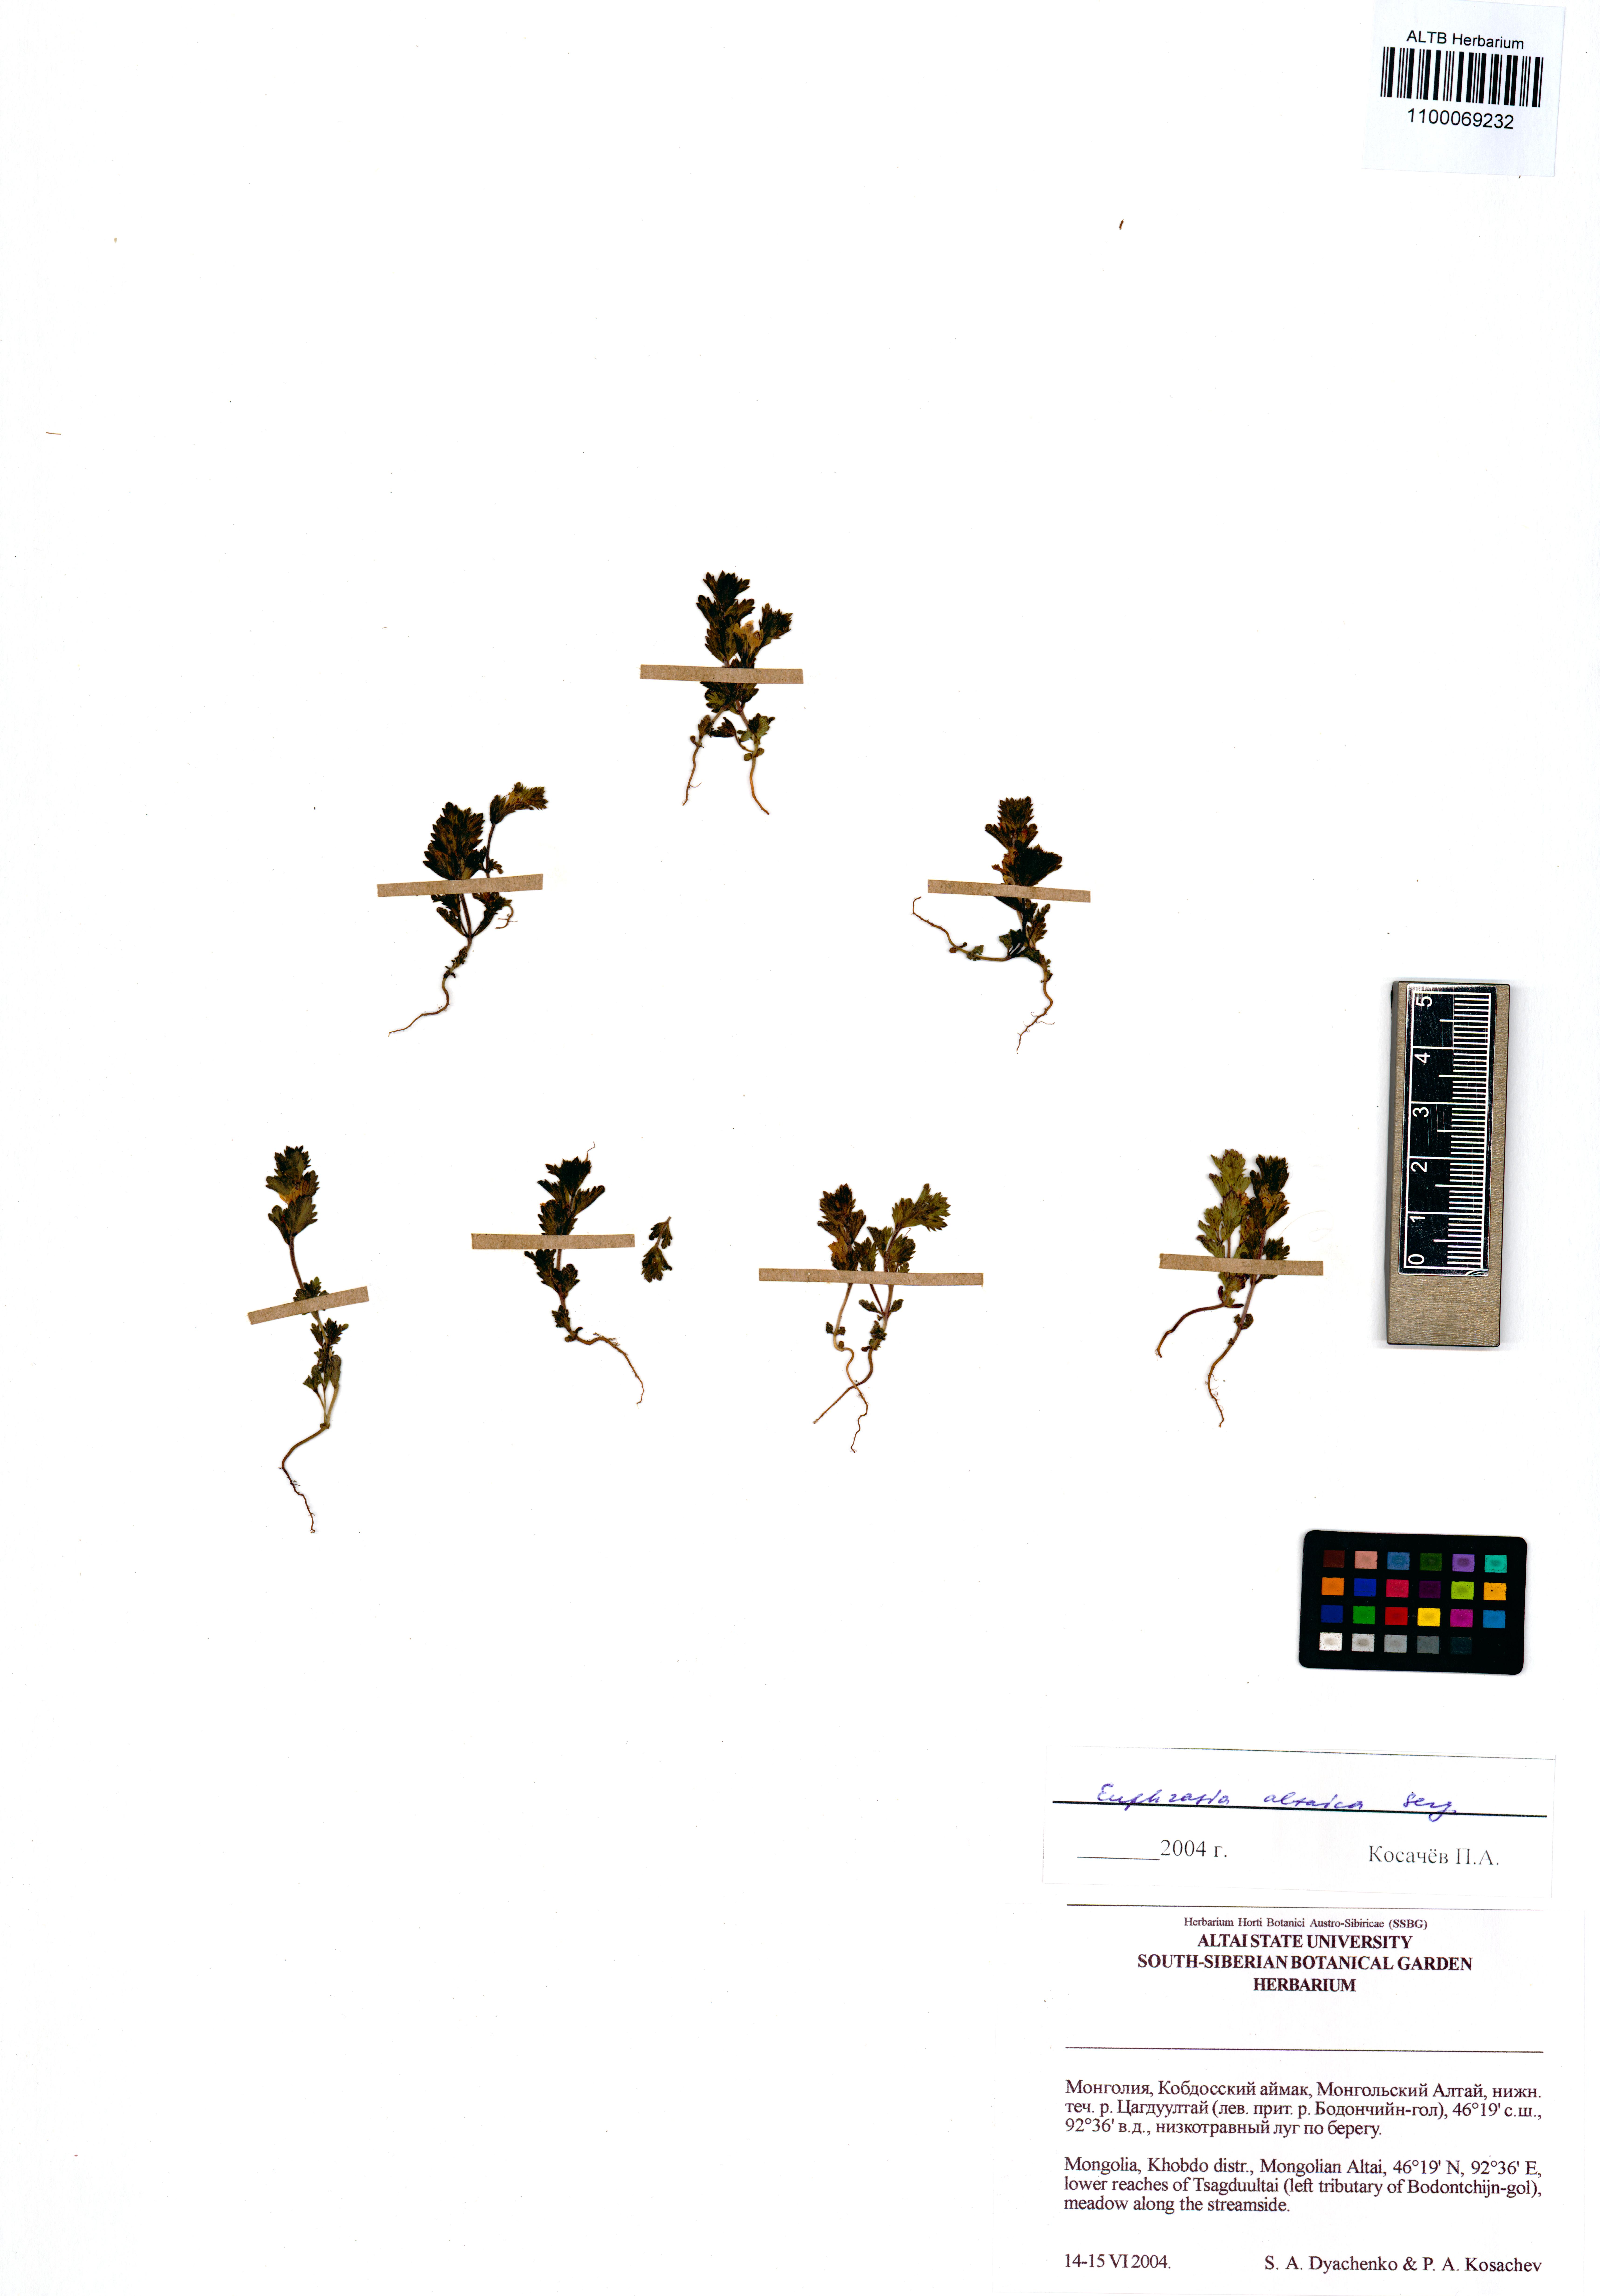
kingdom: Plantae
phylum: Tracheophyta
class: Magnoliopsida
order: Lamiales
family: Orobanchaceae
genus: Euphrasia
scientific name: Euphrasia altaica
